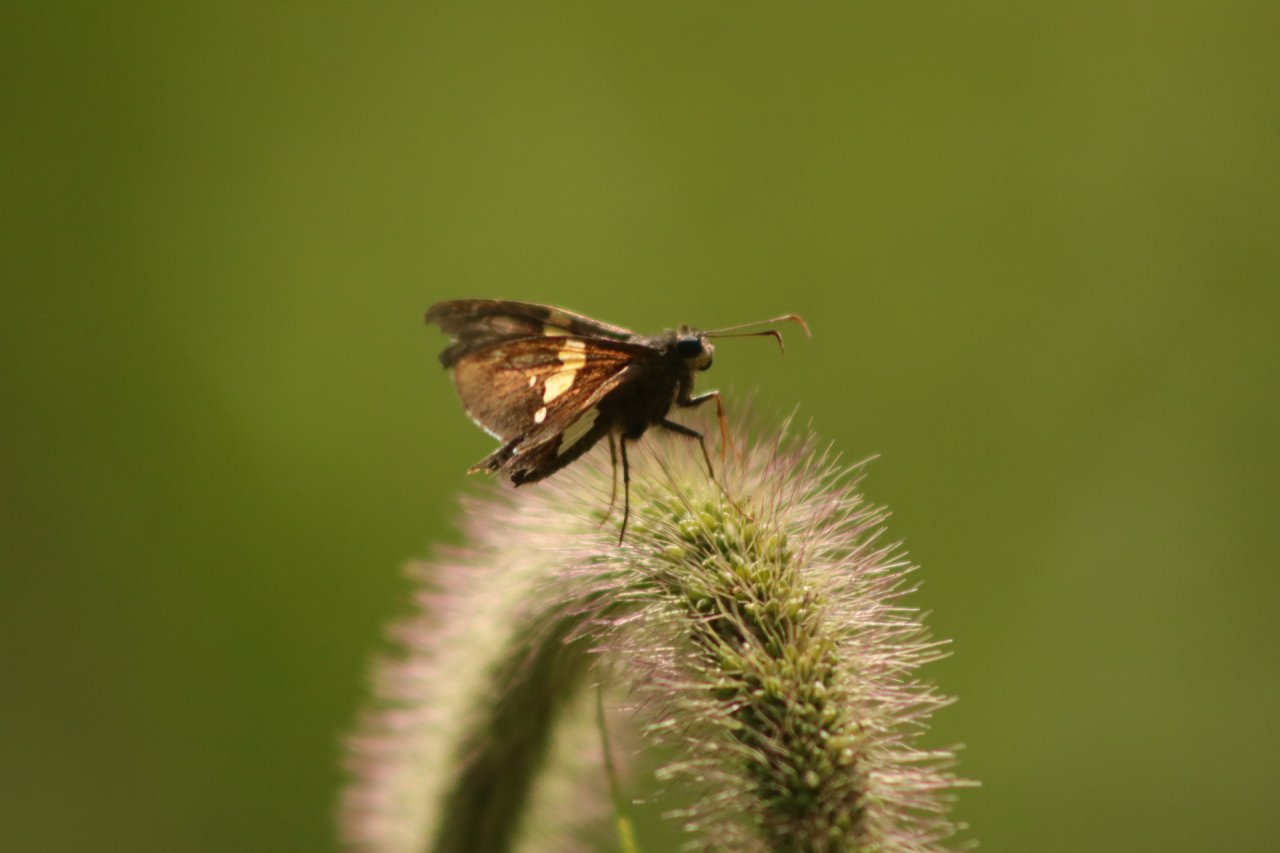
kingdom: Animalia
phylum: Arthropoda
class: Insecta
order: Lepidoptera
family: Hesperiidae
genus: Epargyreus
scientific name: Epargyreus clarus
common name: Silver-spotted Skipper
